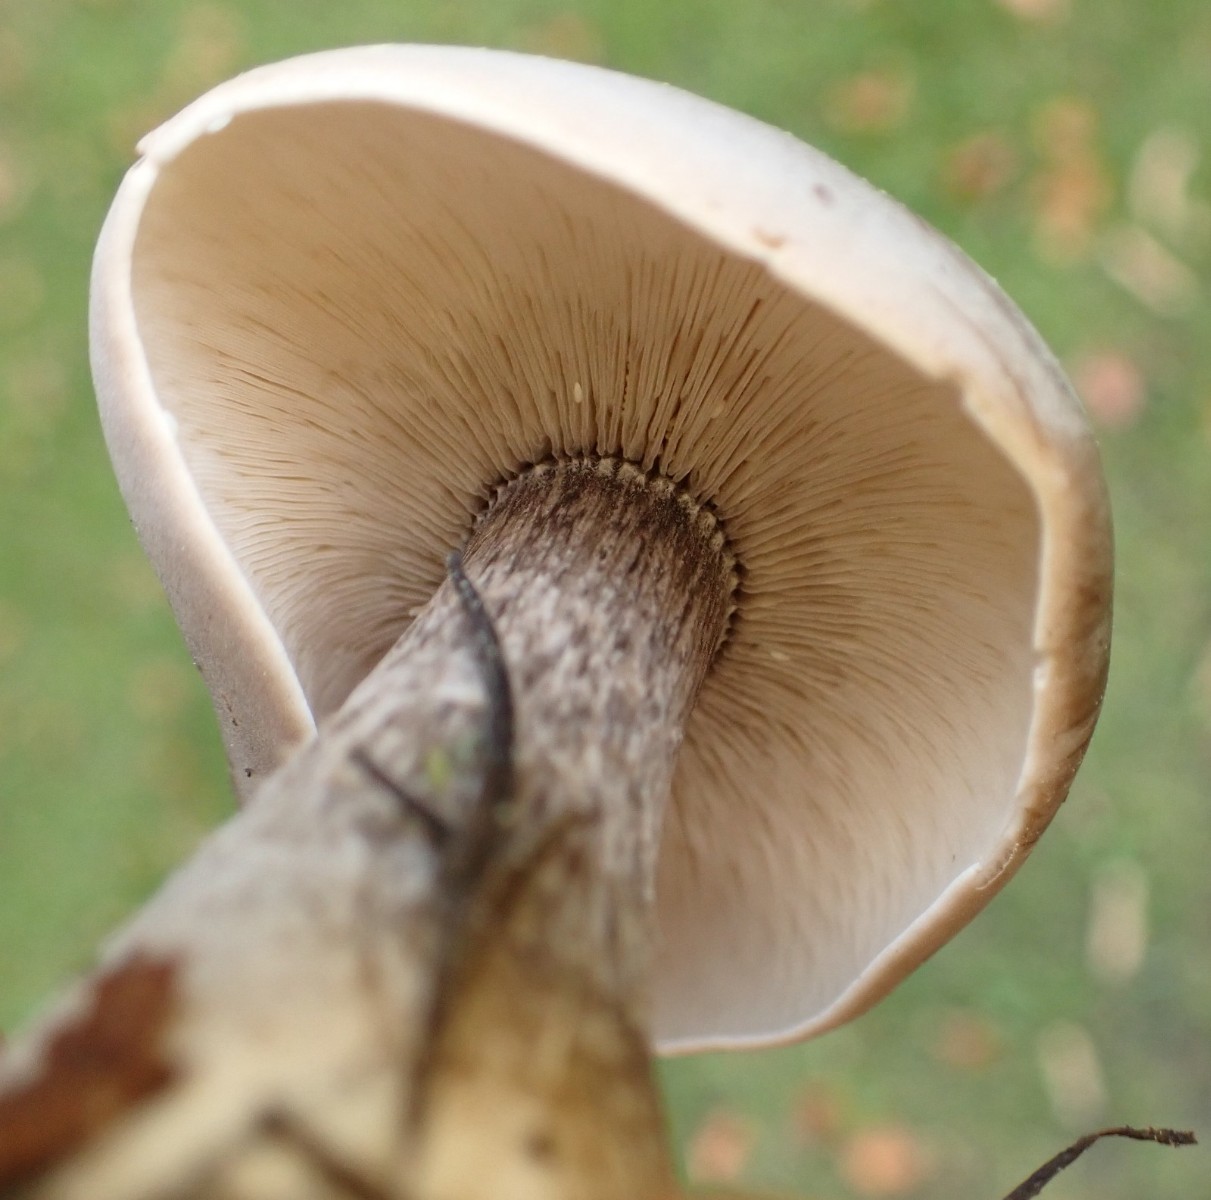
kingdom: Fungi
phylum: Basidiomycota
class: Agaricomycetes
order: Agaricales
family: Tricholomataceae
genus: Melanoleuca
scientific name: Melanoleuca grammopodia
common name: stribestokket munkehat
